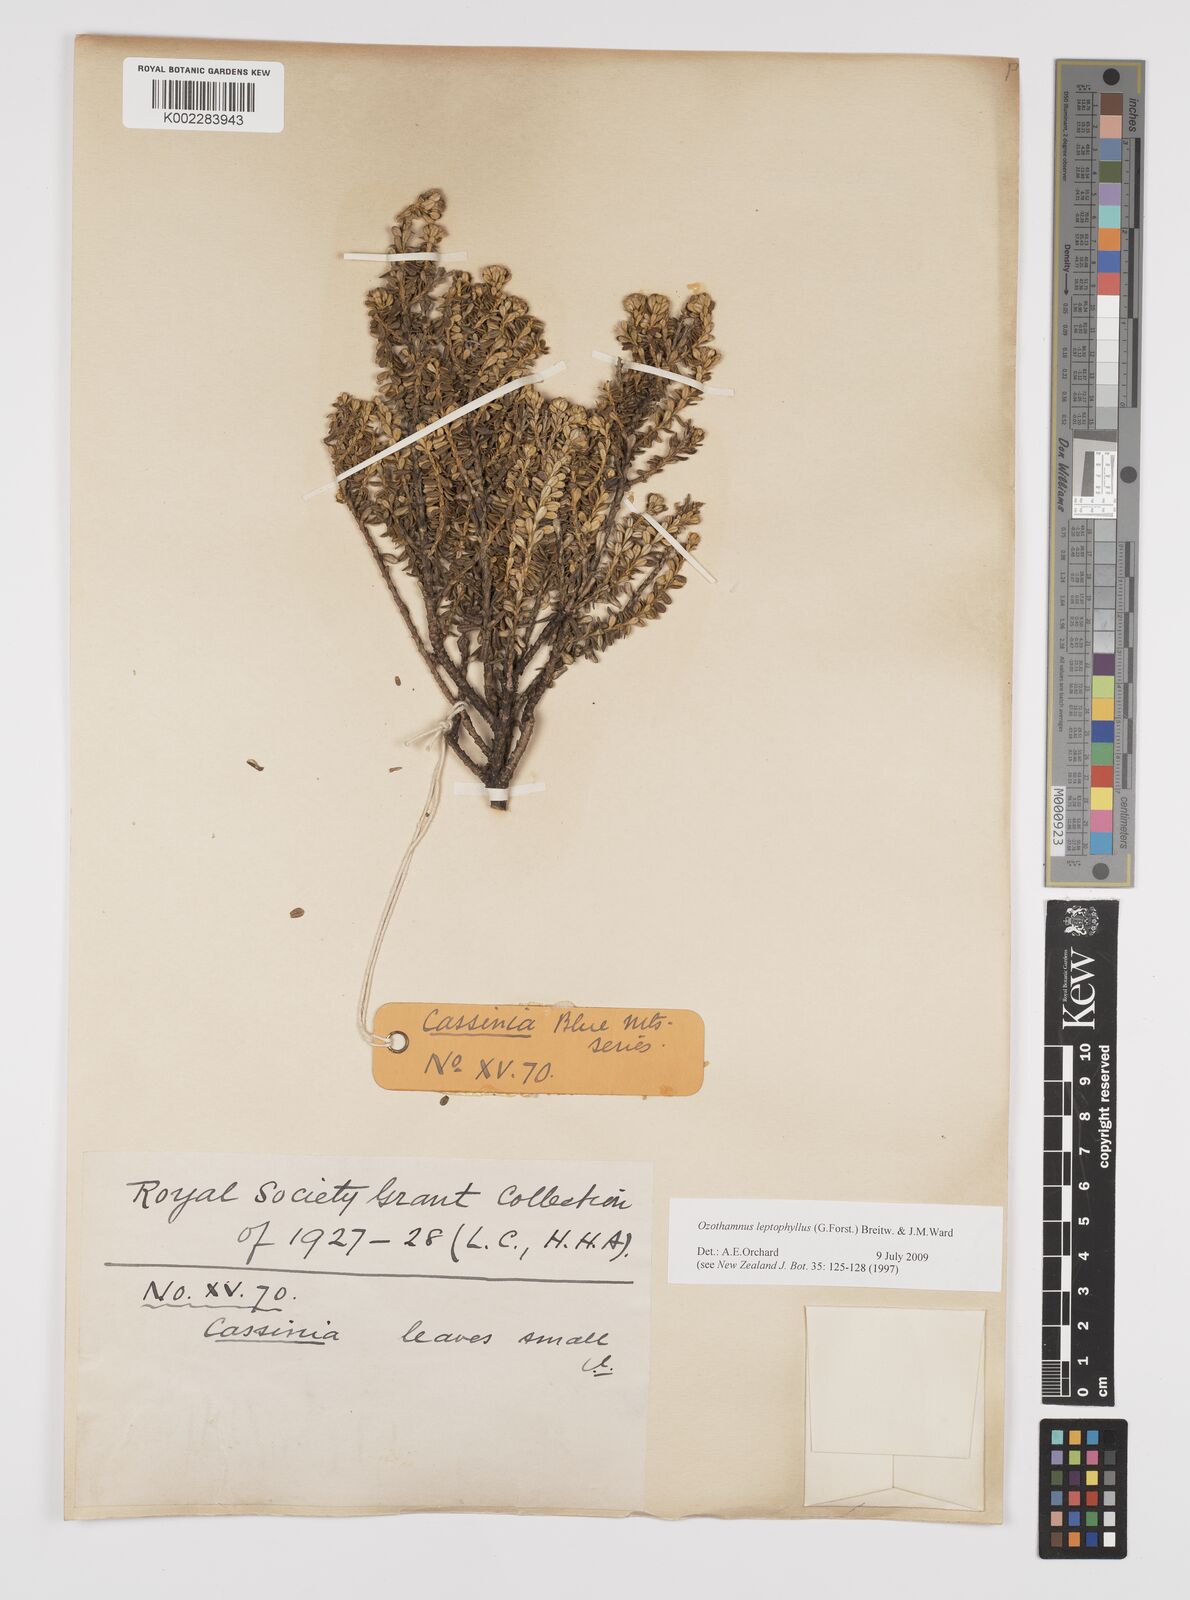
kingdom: Plantae
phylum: Tracheophyta
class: Magnoliopsida
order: Asterales
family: Asteraceae
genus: Ozothamnus
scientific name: Ozothamnus leptophyllus
